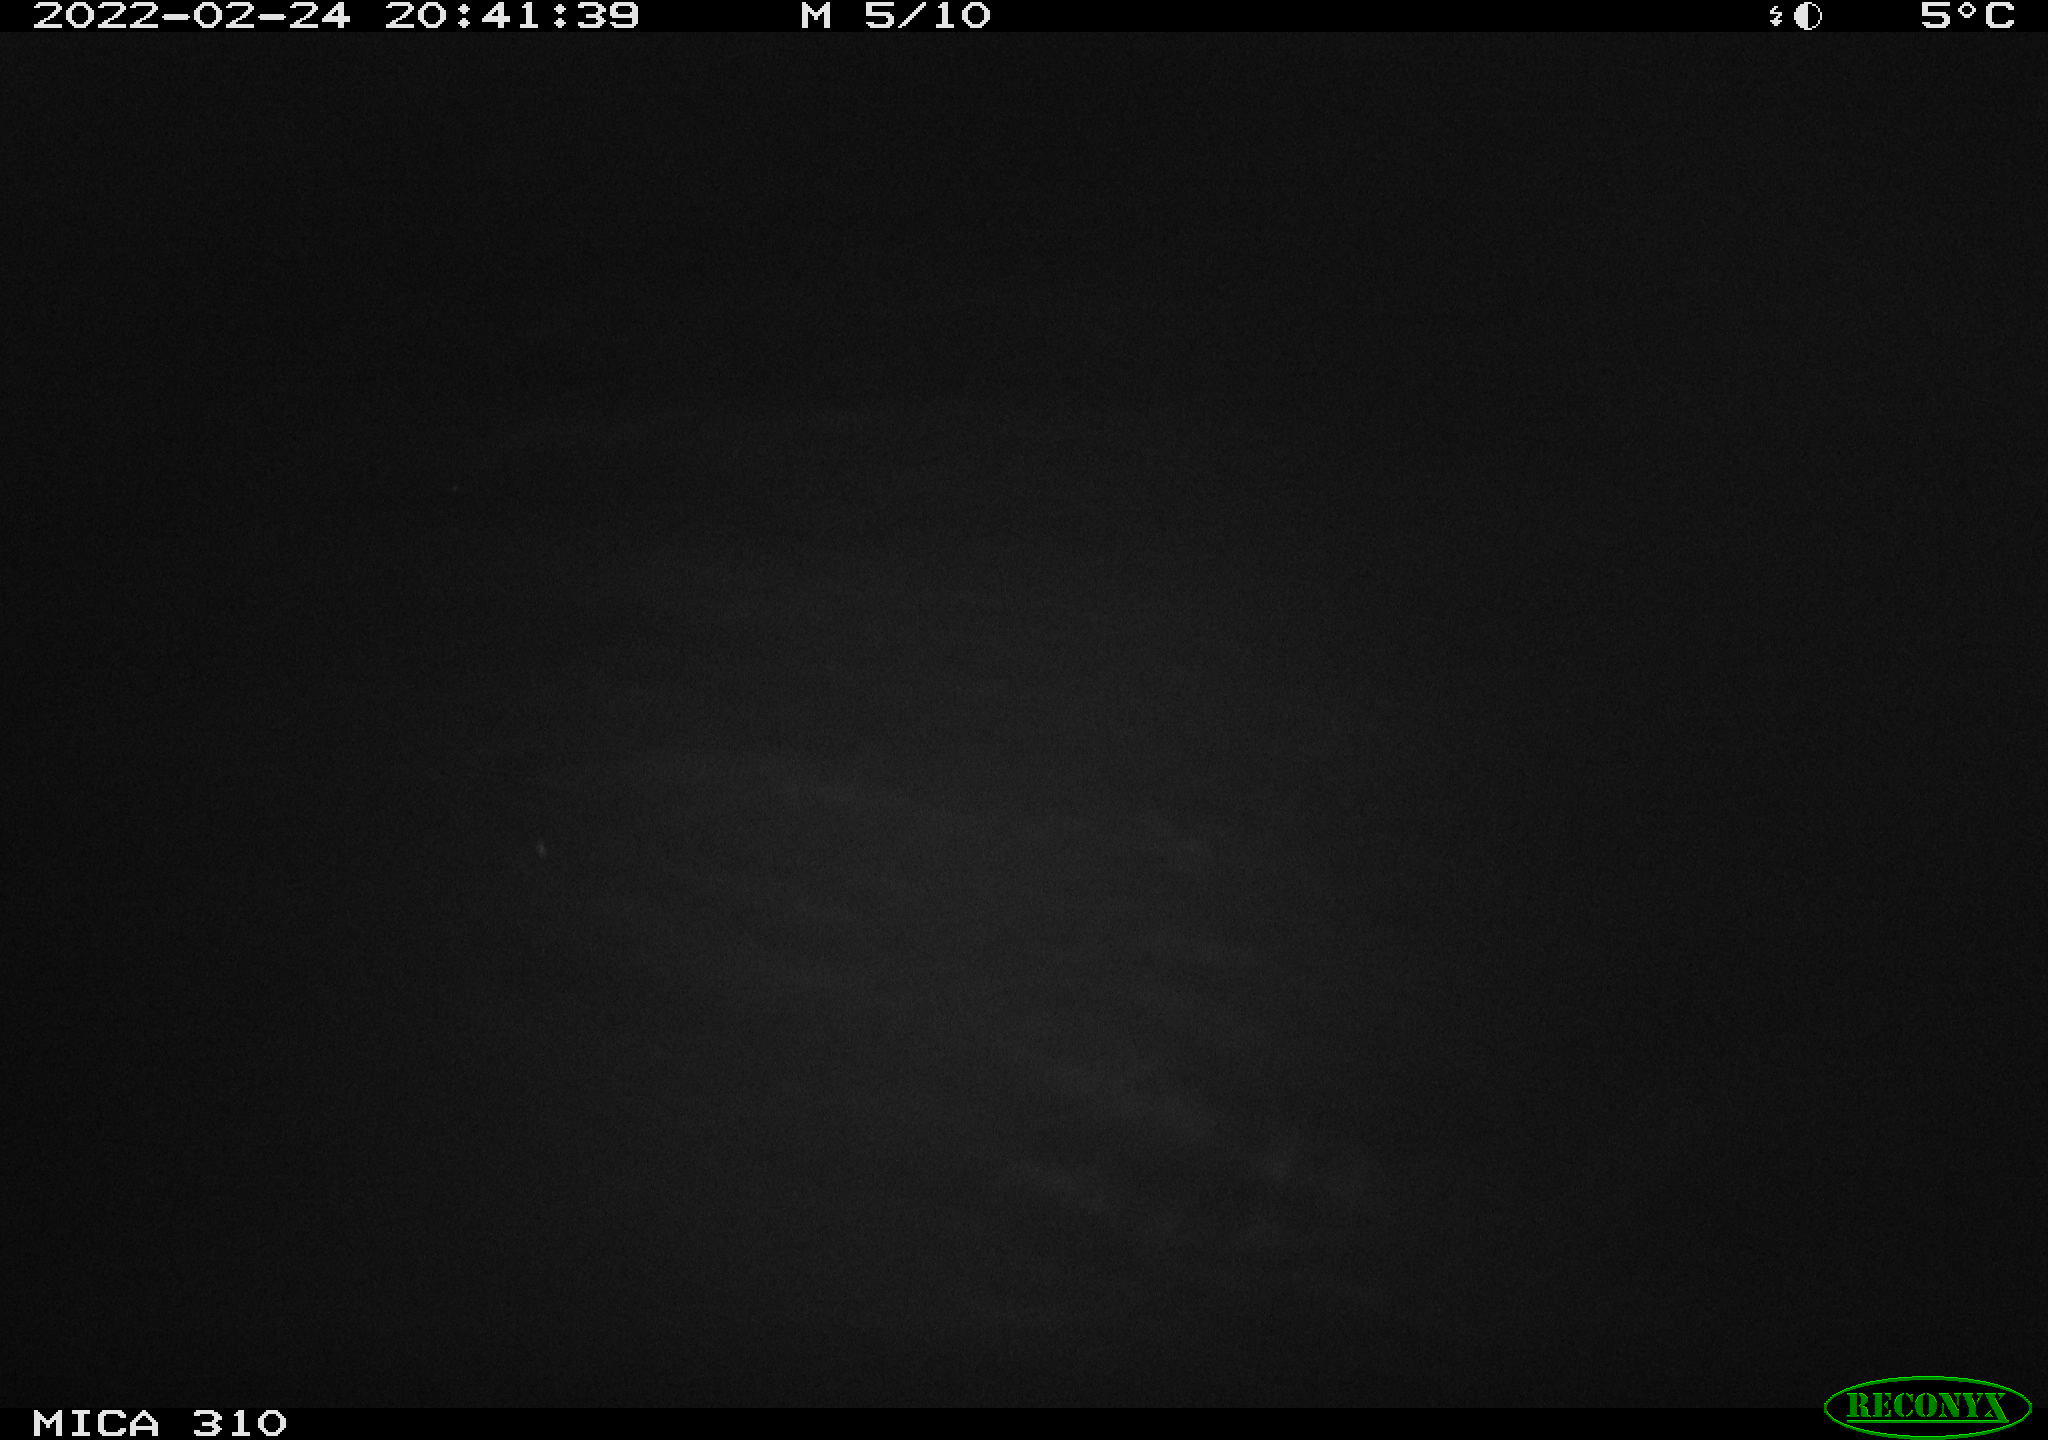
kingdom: Animalia
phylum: Chordata
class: Mammalia
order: Rodentia
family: Cricetidae
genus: Ondatra
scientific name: Ondatra zibethicus
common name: Muskrat
